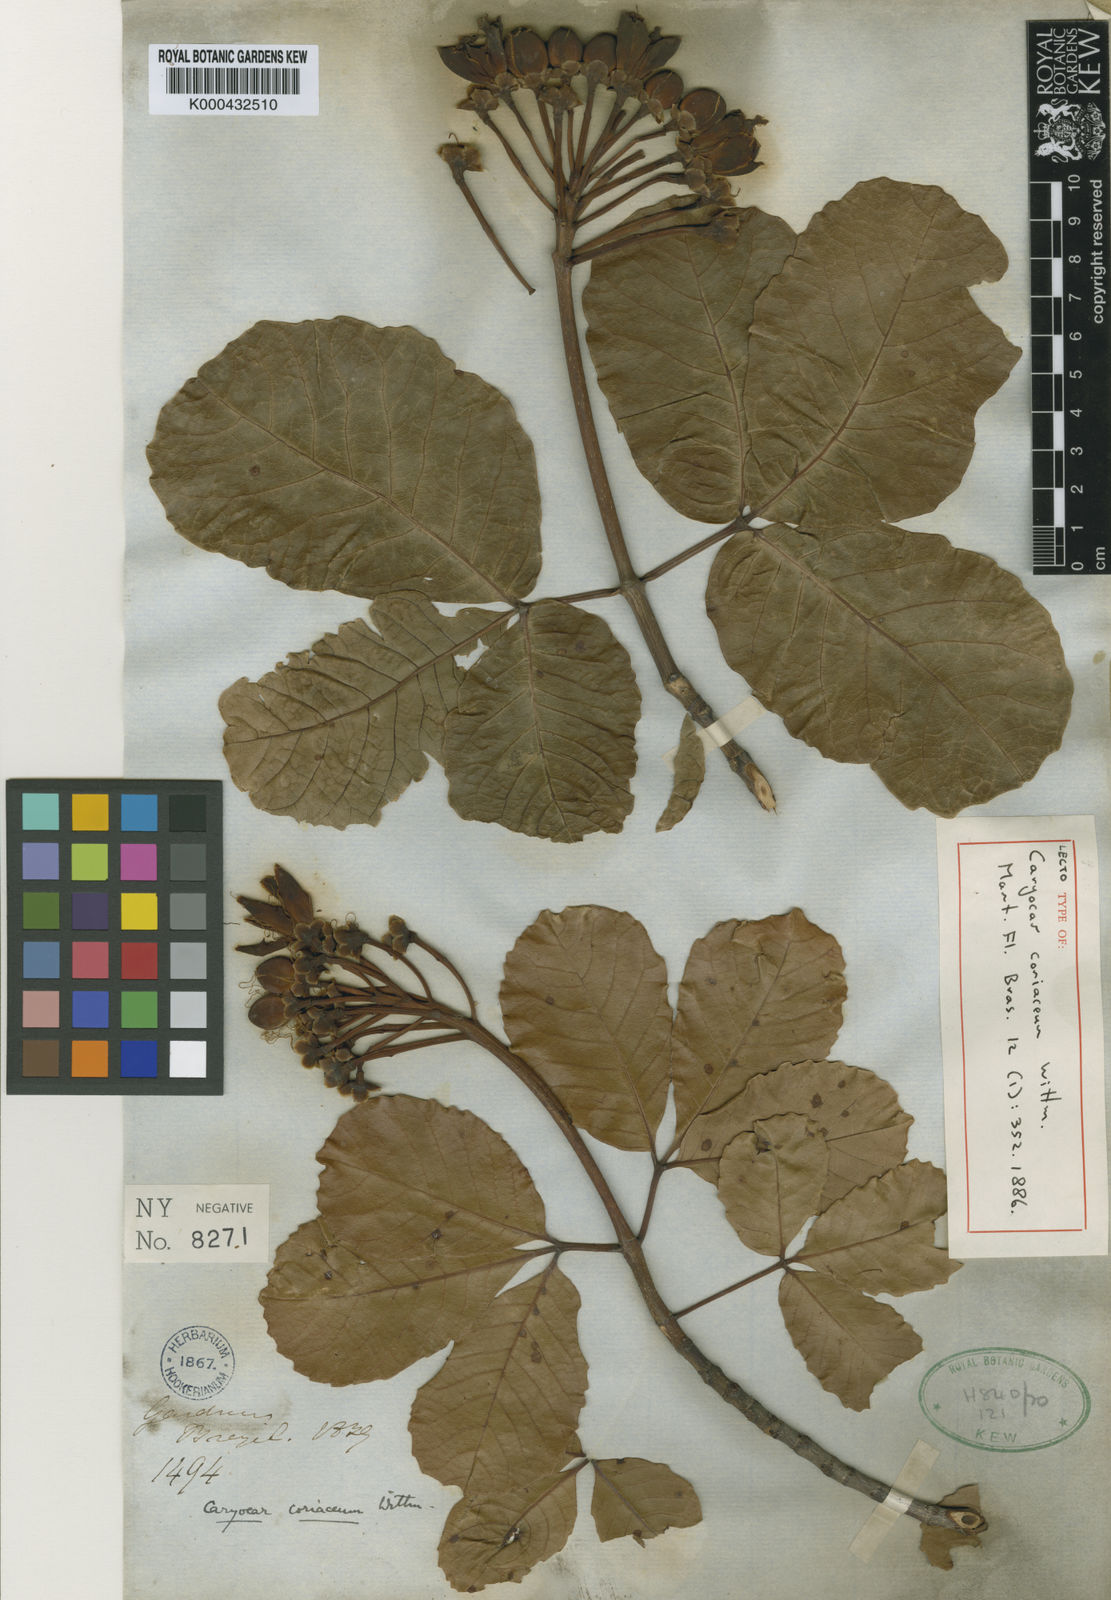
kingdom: Plantae
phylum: Tracheophyta
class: Magnoliopsida
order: Malpighiales
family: Caryocaraceae
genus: Caryocar
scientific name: Caryocar coriaceum
